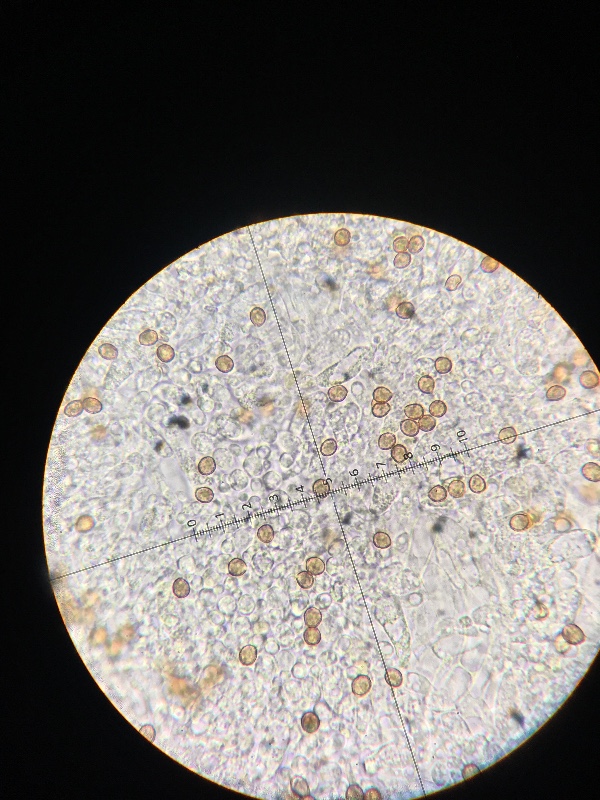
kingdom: Fungi
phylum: Basidiomycota
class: Agaricomycetes
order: Agaricales
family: Cortinariaceae
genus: Cortinarius
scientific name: Cortinarius
